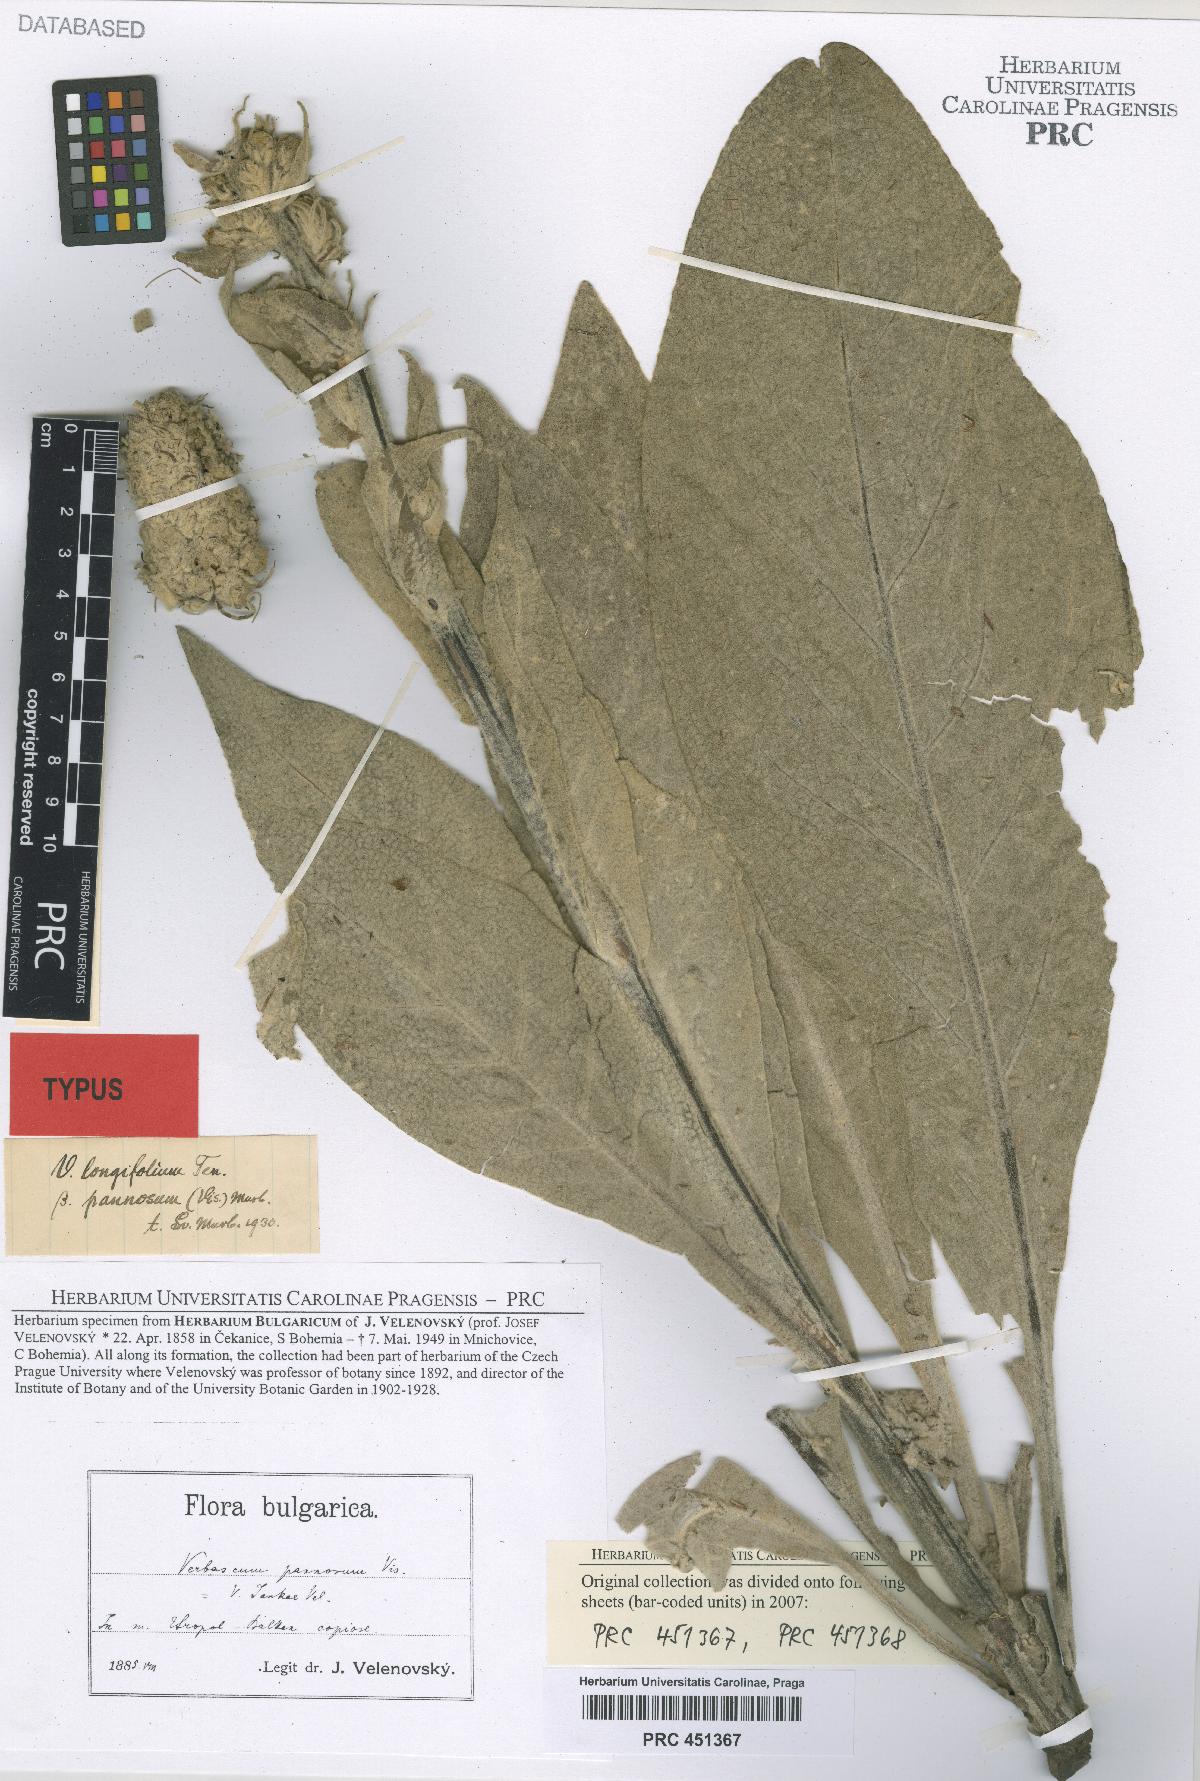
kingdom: Plantae
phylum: Tracheophyta
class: Magnoliopsida
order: Lamiales
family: Scrophulariaceae
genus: Verbascum
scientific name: Verbascum jankae
